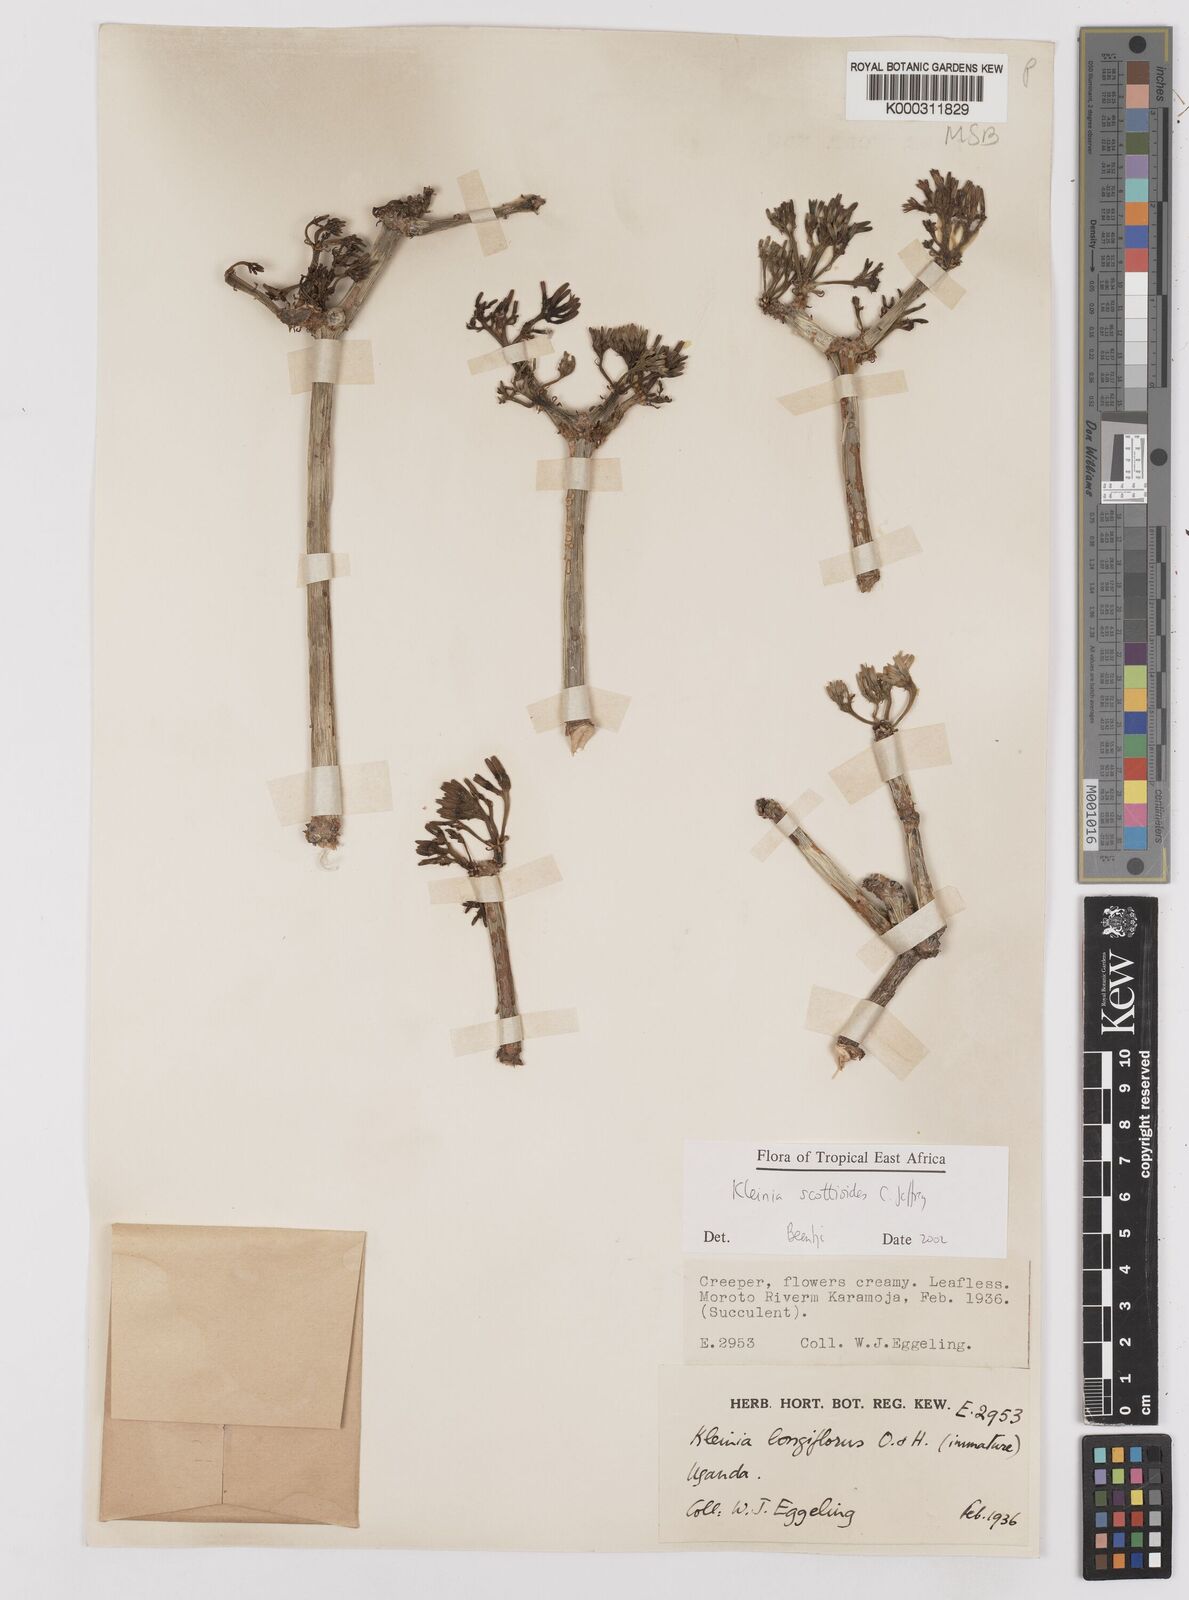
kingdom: Plantae
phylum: Tracheophyta
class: Magnoliopsida
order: Asterales
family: Asteraceae
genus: Curio
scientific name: Curio avasimontanus
